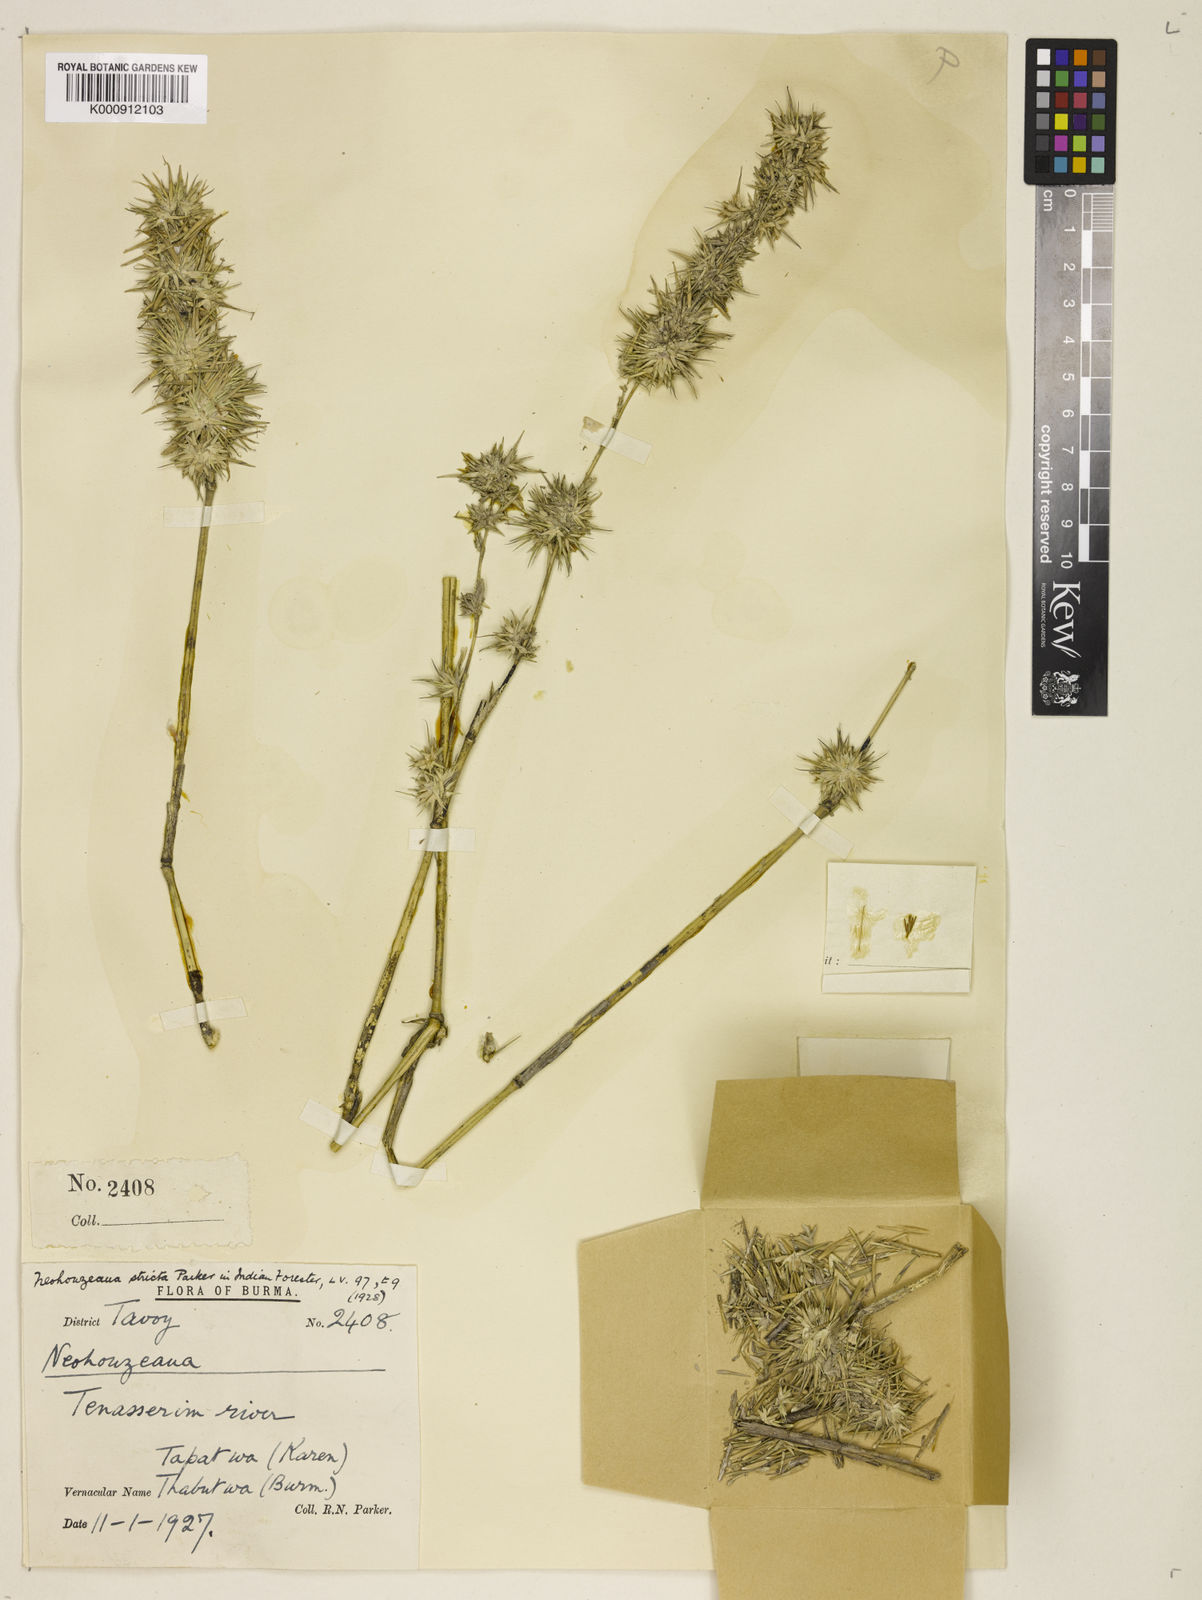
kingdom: Plantae
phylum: Tracheophyta
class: Liliopsida
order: Poales
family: Poaceae
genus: Schizostachyum
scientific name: Schizostachyum strictum
